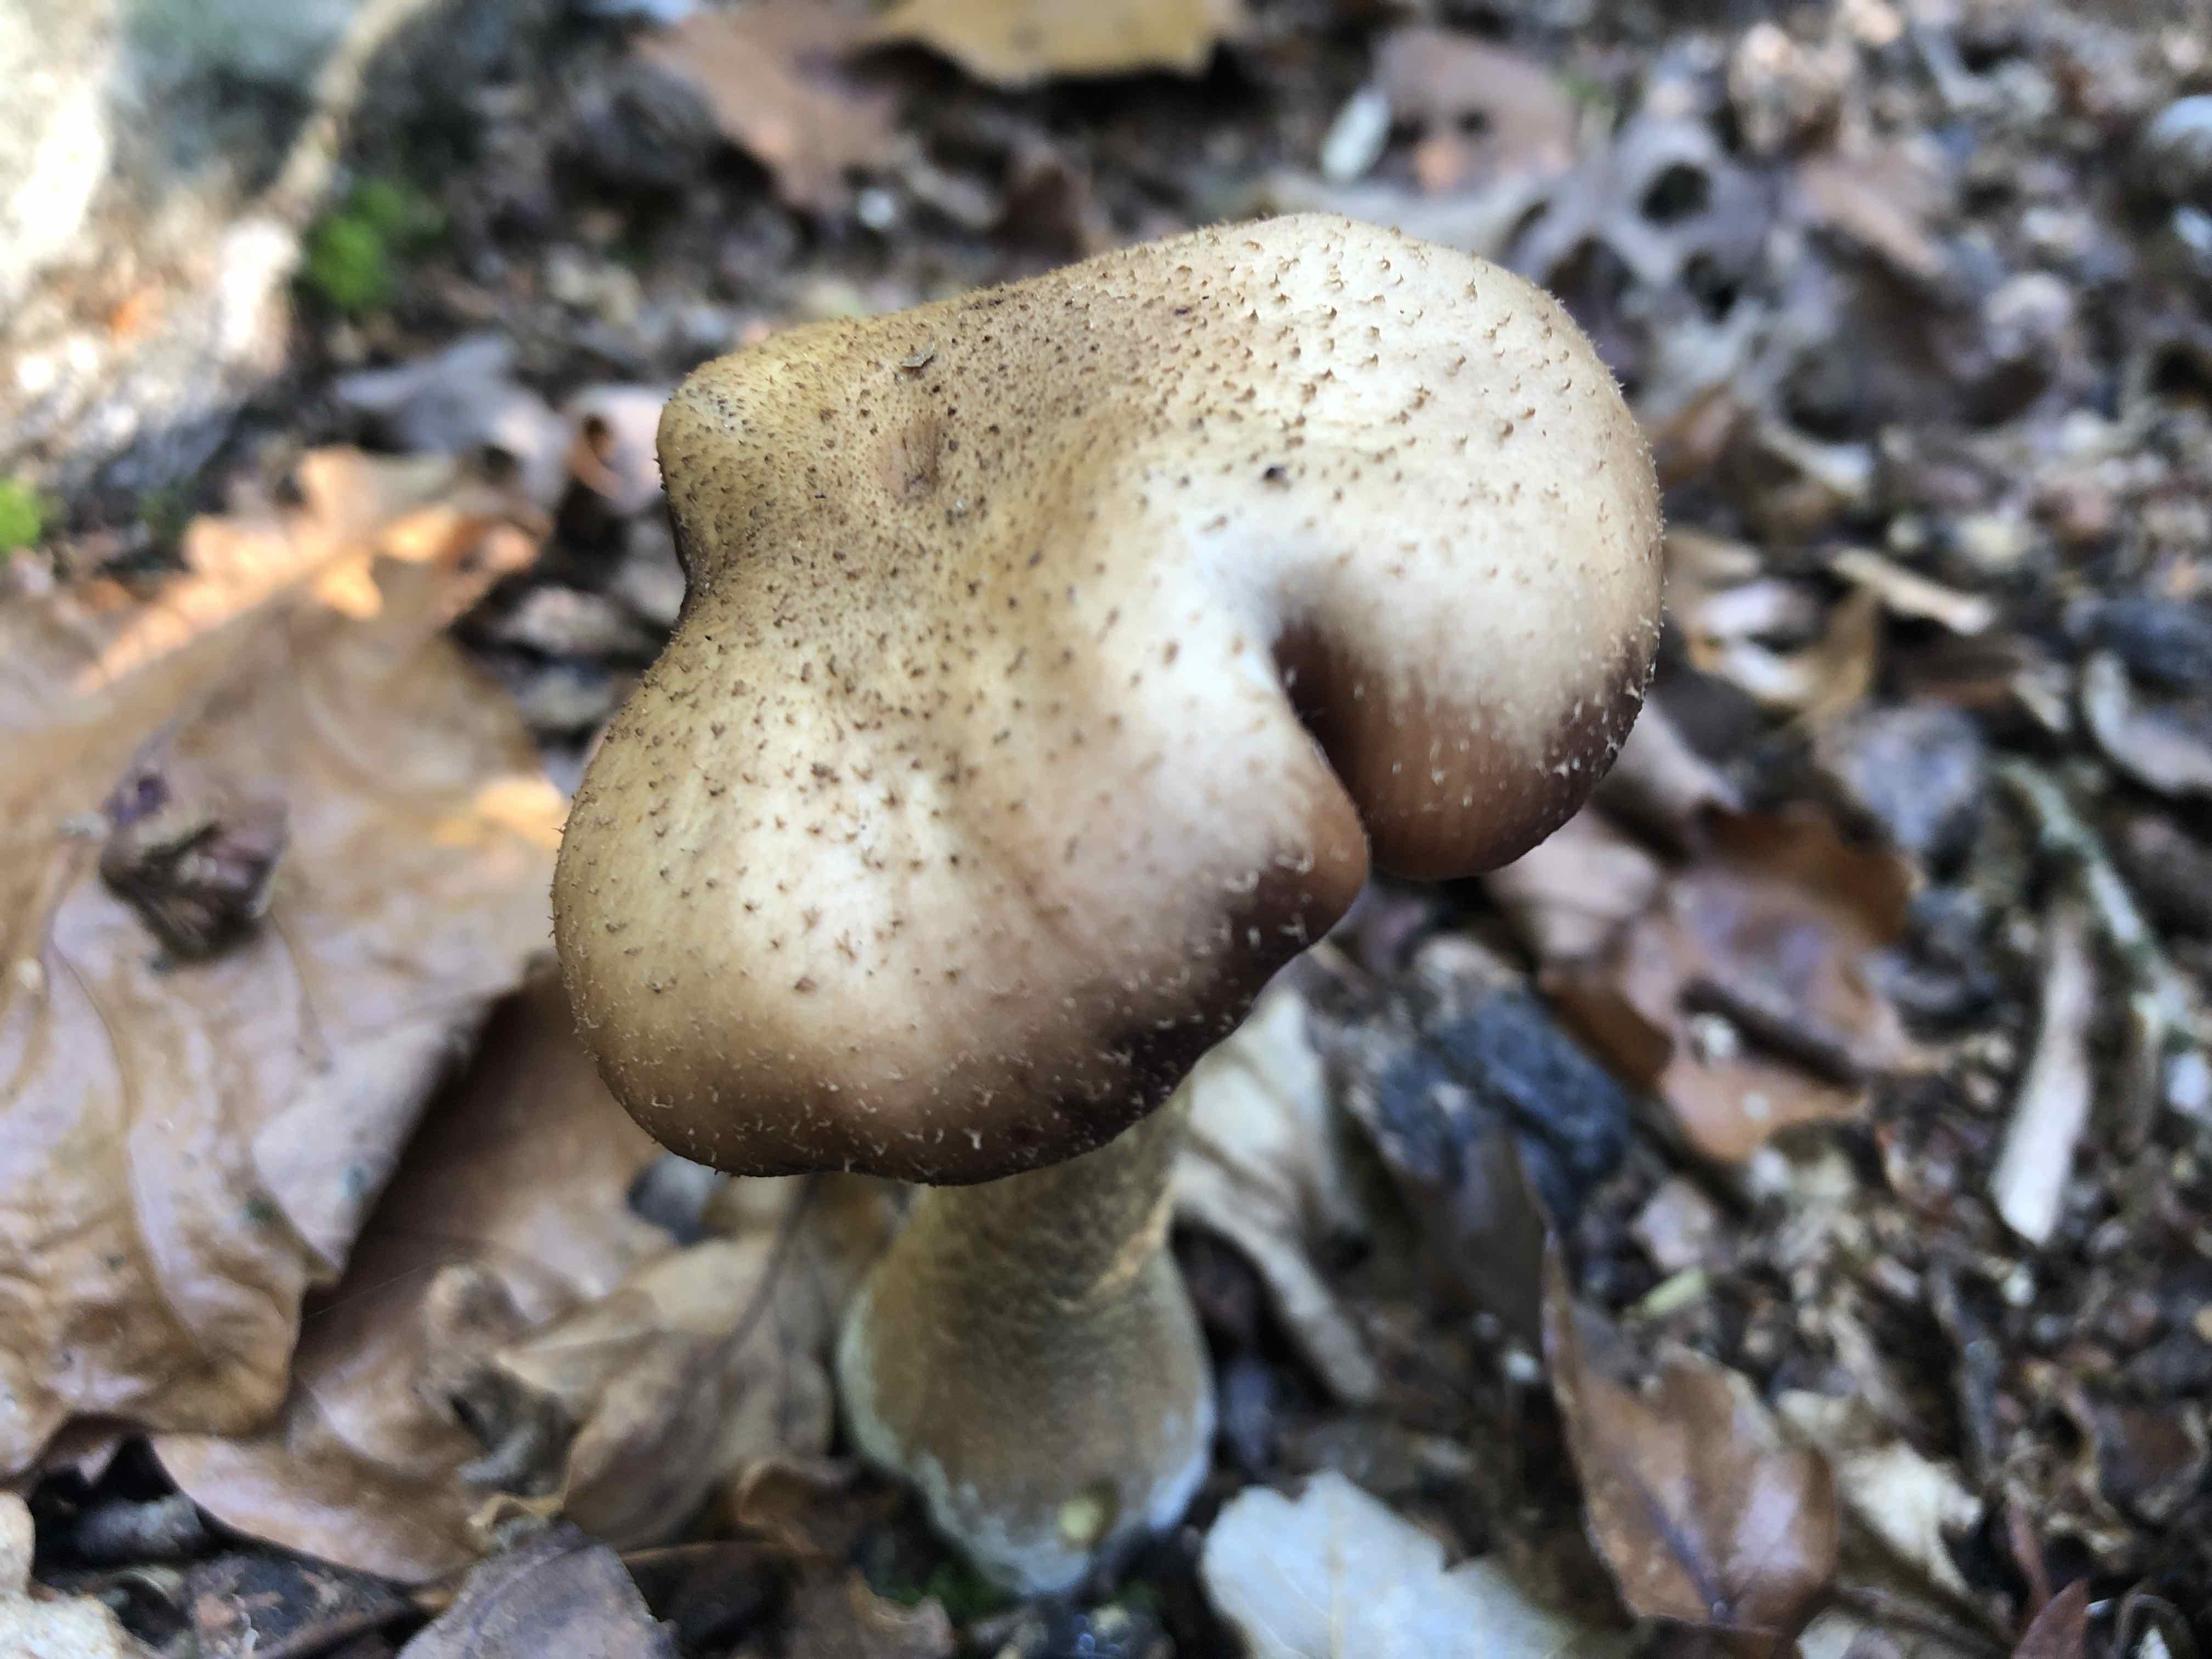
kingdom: Fungi
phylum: Basidiomycota
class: Agaricomycetes
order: Agaricales
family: Physalacriaceae
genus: Armillaria
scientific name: Armillaria lutea
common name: køllestokket honningsvamp
